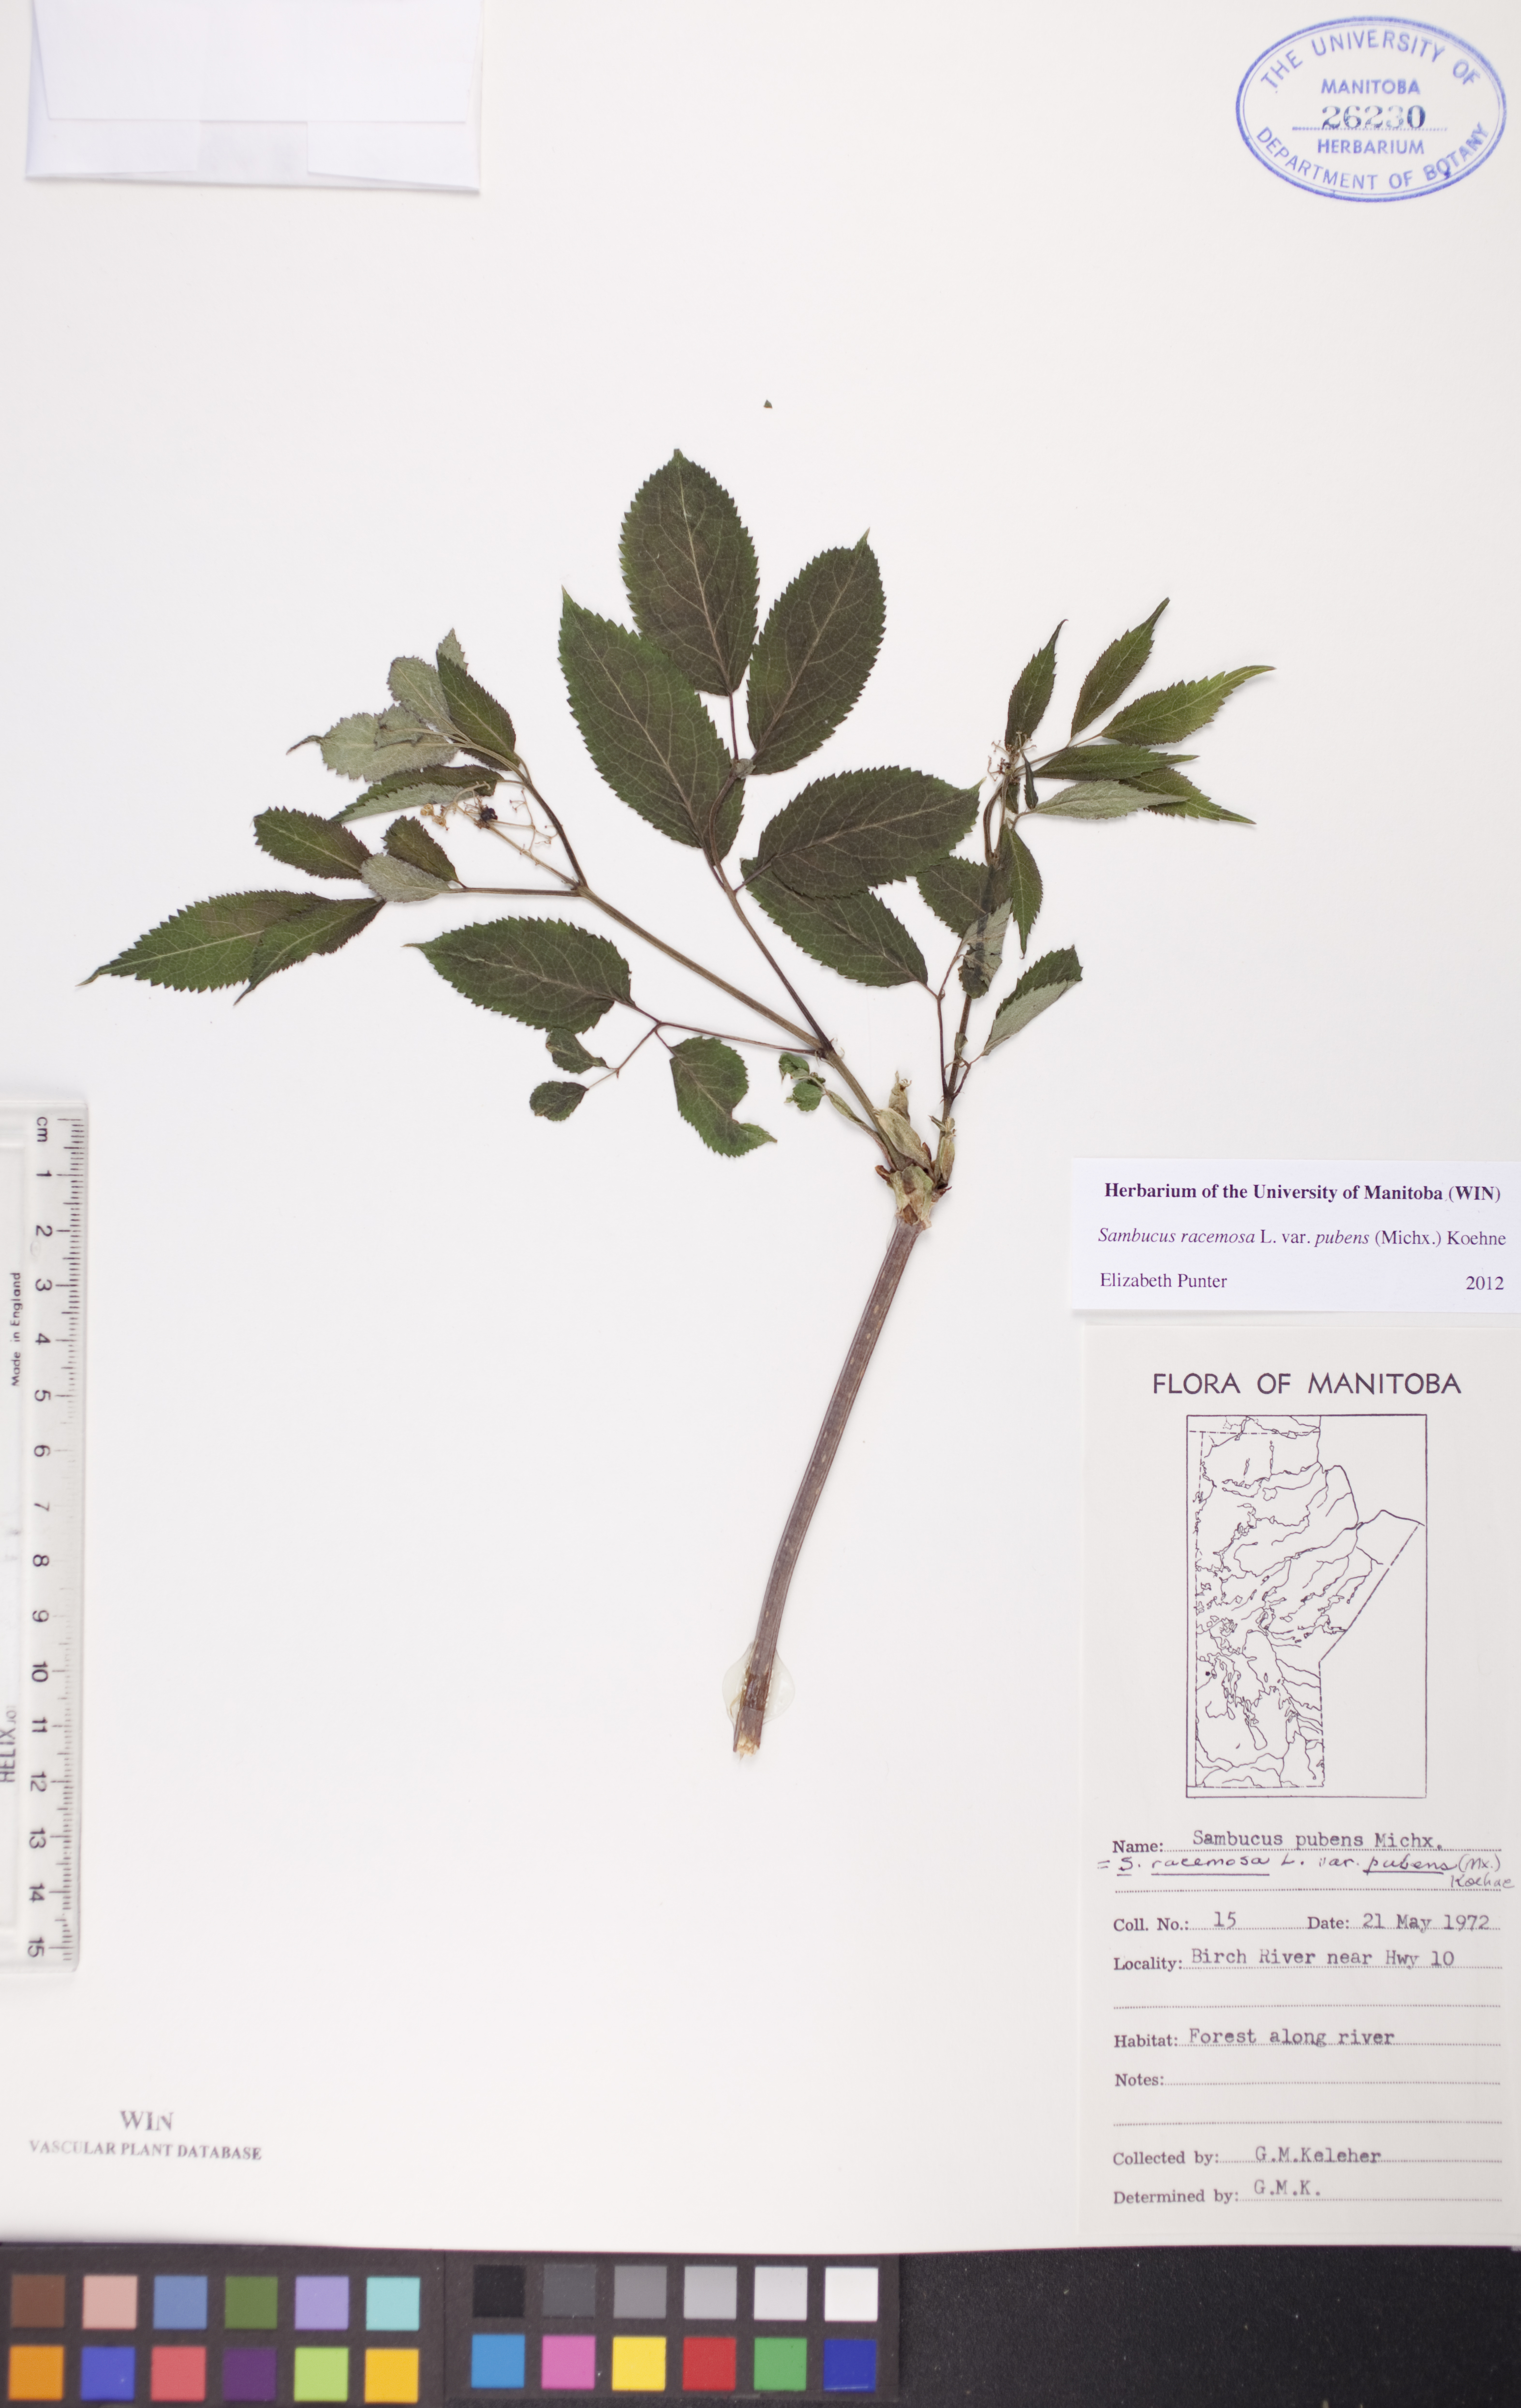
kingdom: Plantae
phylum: Tracheophyta
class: Magnoliopsida
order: Dipsacales
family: Viburnaceae
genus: Sambucus
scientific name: Sambucus racemosa
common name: Red-berried elder
